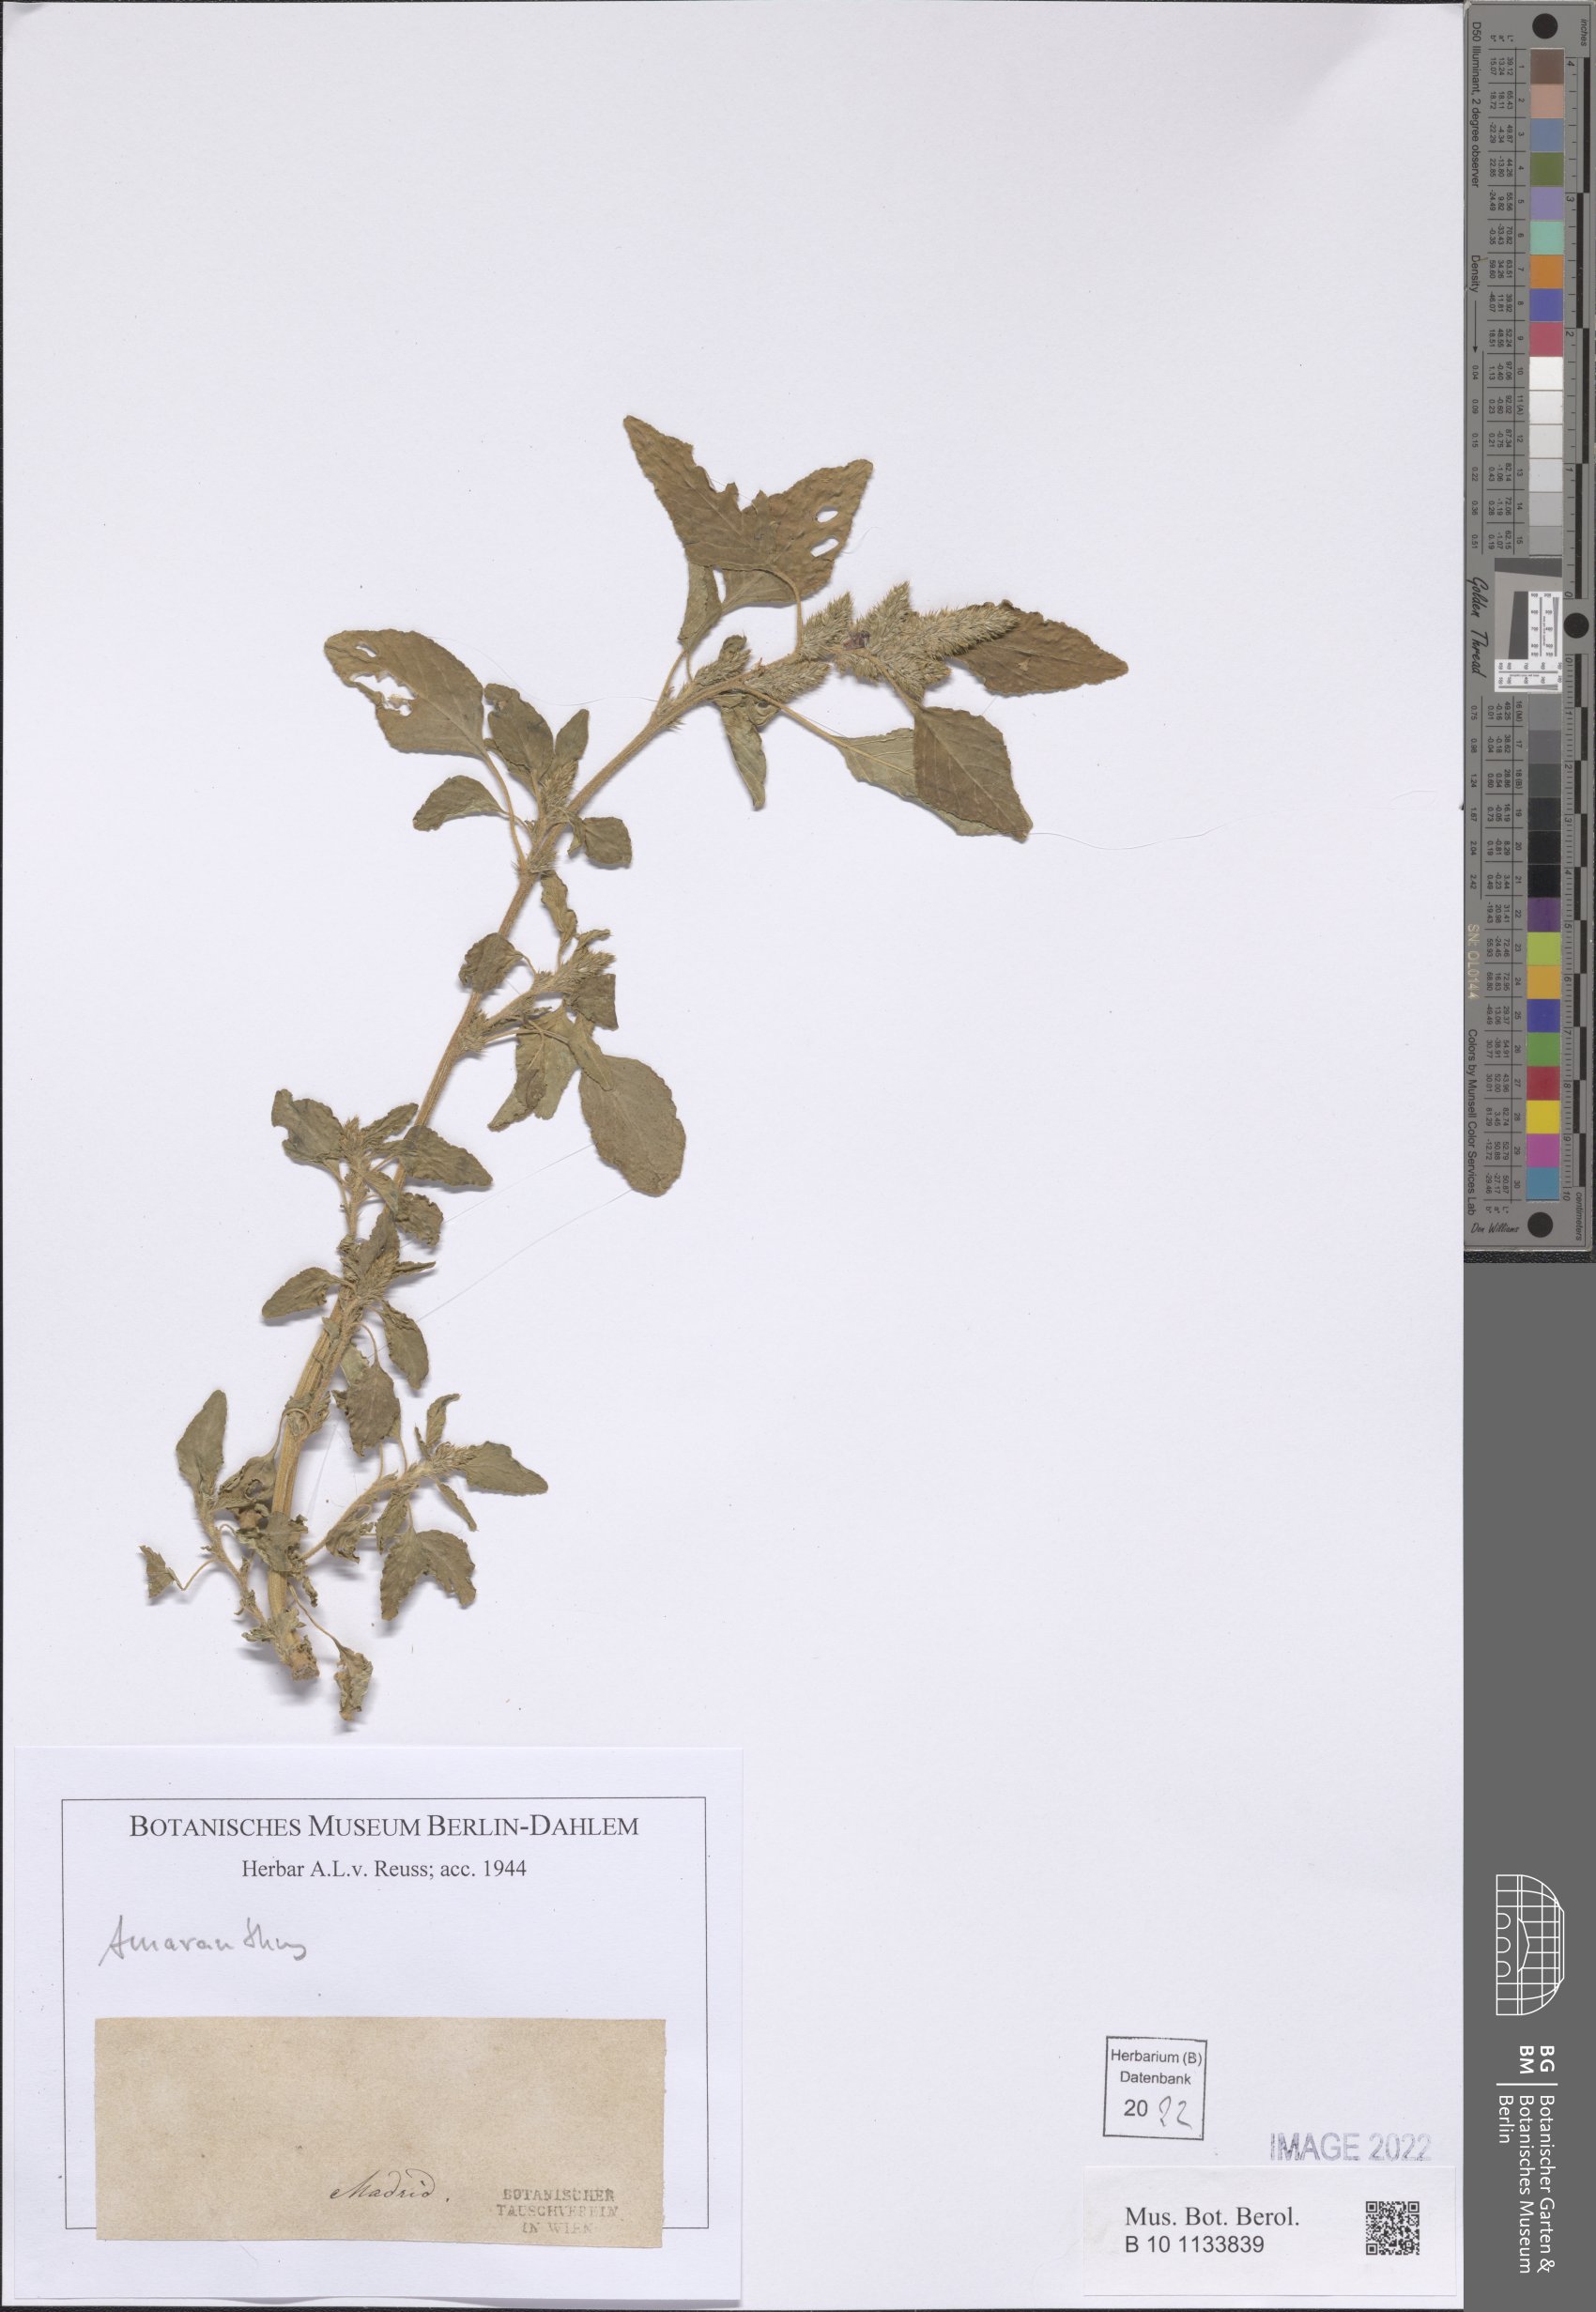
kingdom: Plantae
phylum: Tracheophyta
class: Magnoliopsida
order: Caryophyllales
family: Amaranthaceae
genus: Amaranthus
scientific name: Amaranthus
